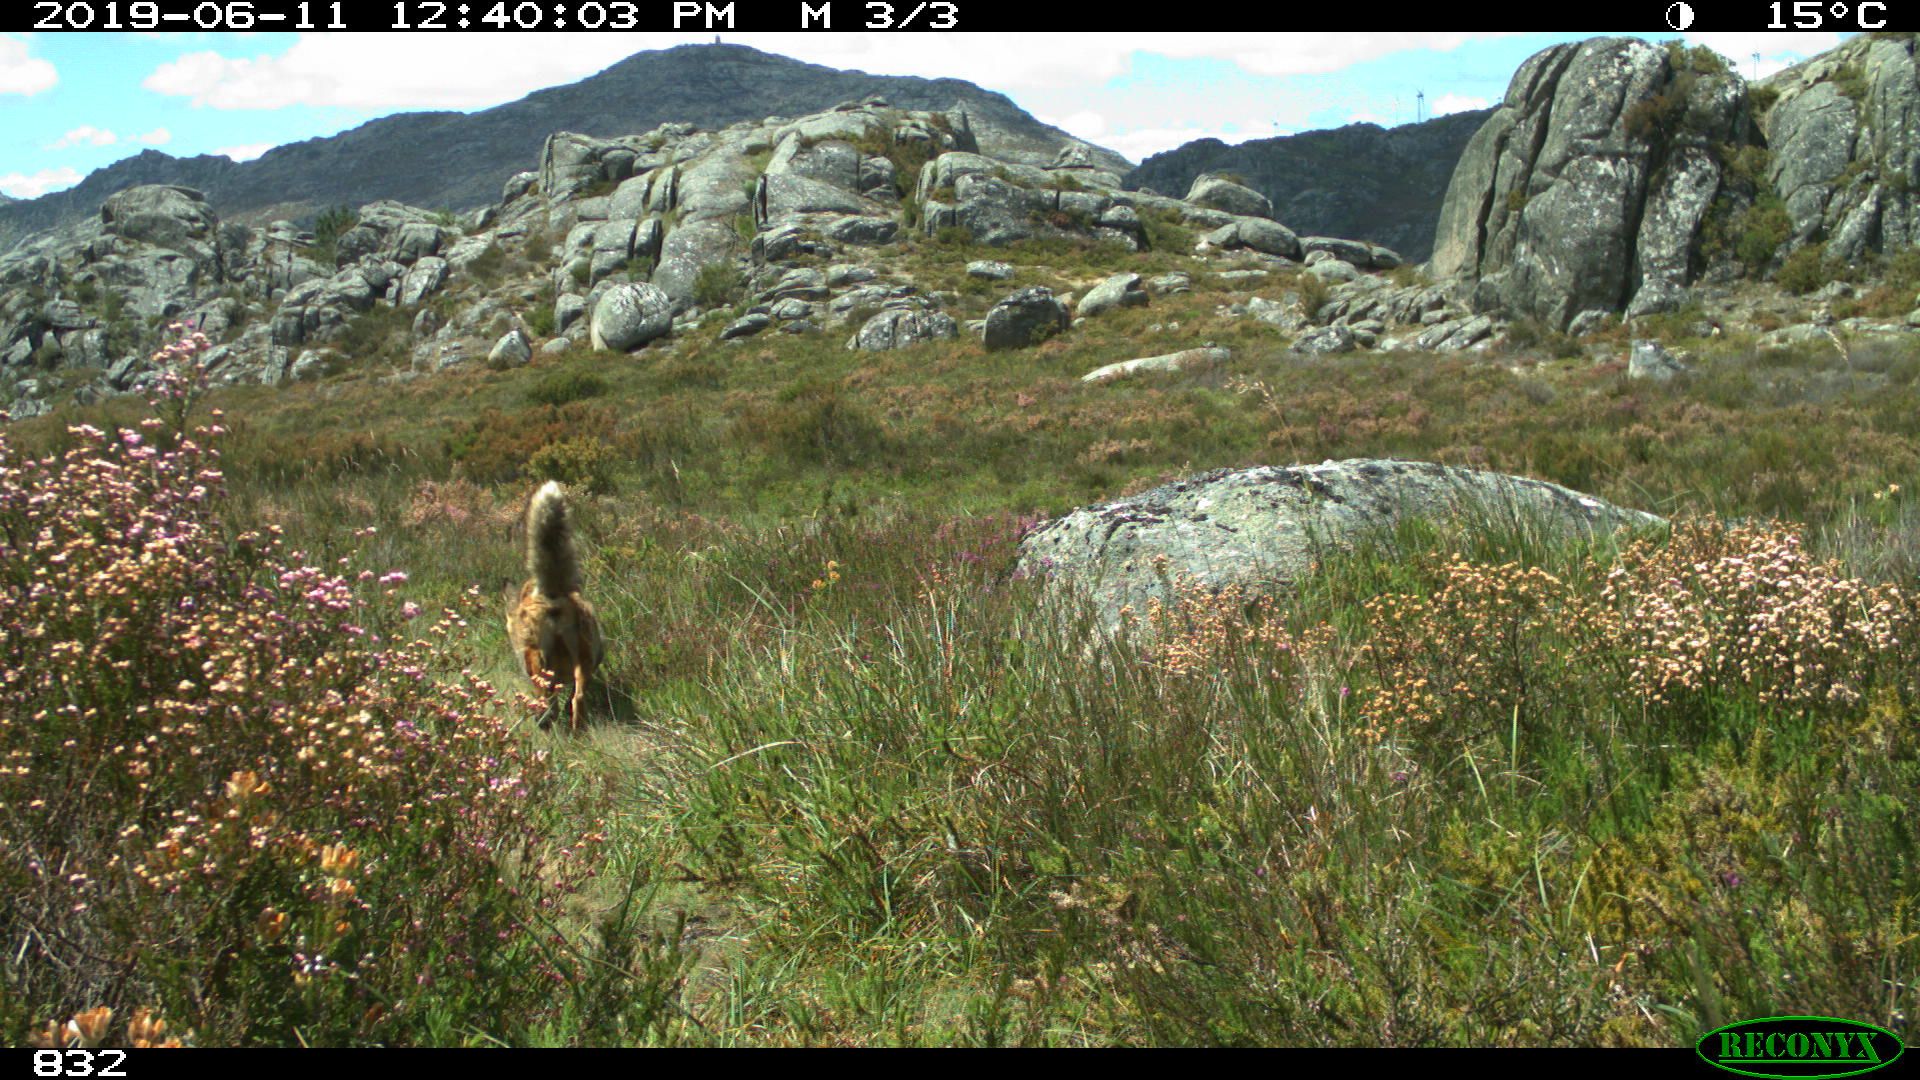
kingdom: Animalia
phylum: Chordata
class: Mammalia
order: Carnivora
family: Canidae
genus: Vulpes
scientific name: Vulpes vulpes
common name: Red fox
